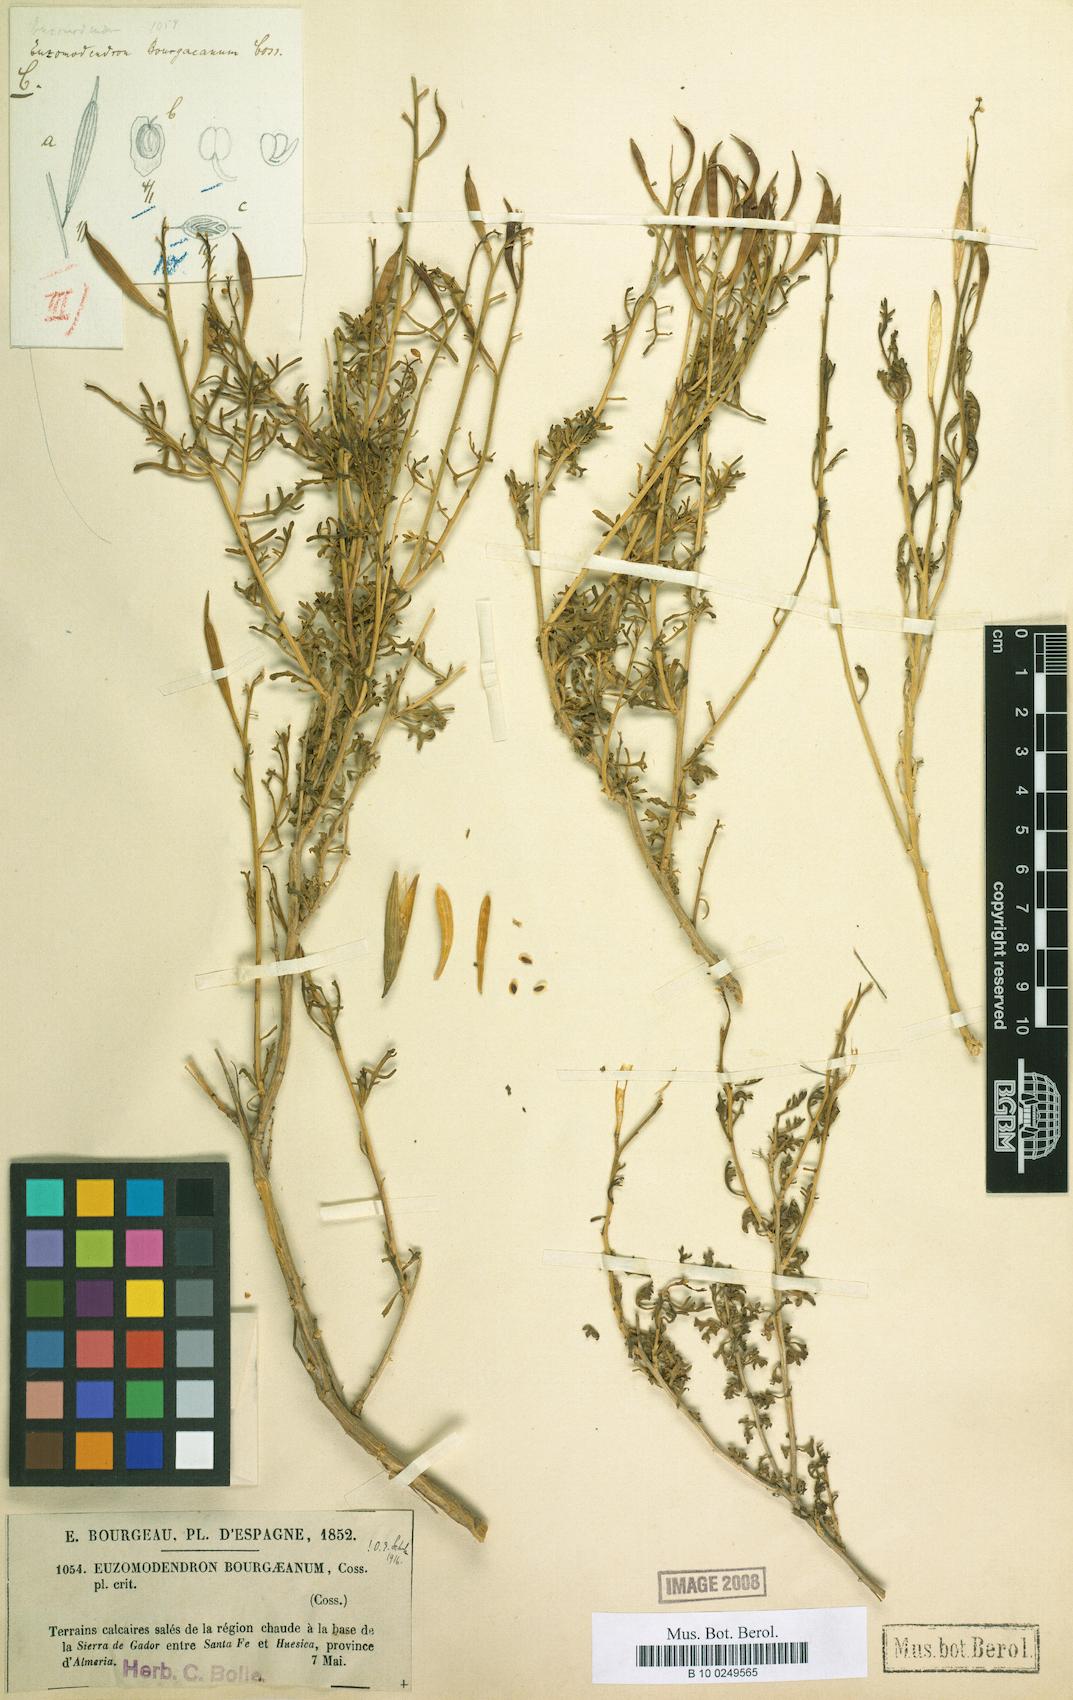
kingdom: Plantae
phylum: Tracheophyta
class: Magnoliopsida
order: Brassicales
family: Brassicaceae
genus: Vella
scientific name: Vella Euzomodendron bourgeanum
